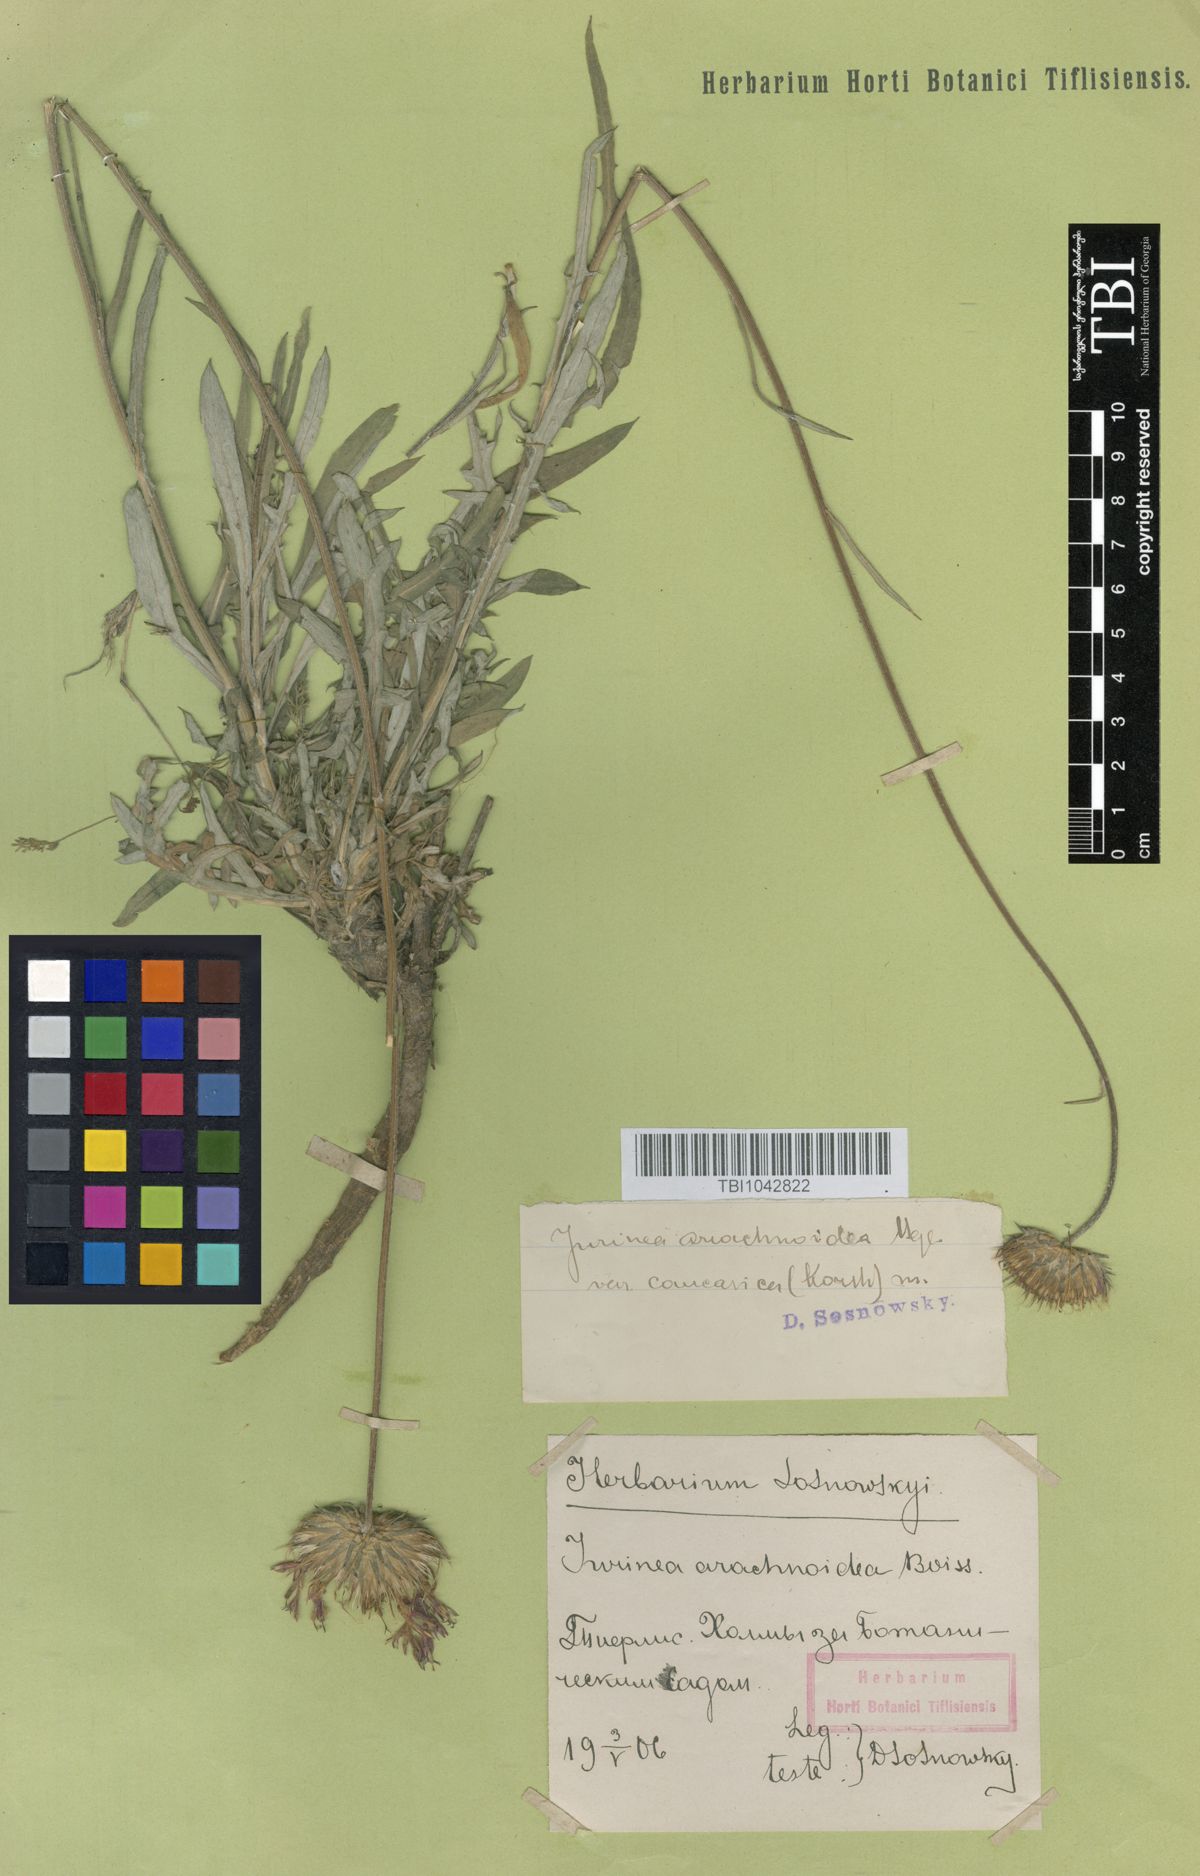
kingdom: Plantae
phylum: Tracheophyta
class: Magnoliopsida
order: Asterales
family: Asteraceae
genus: Jurinea
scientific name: Jurinea blanda
